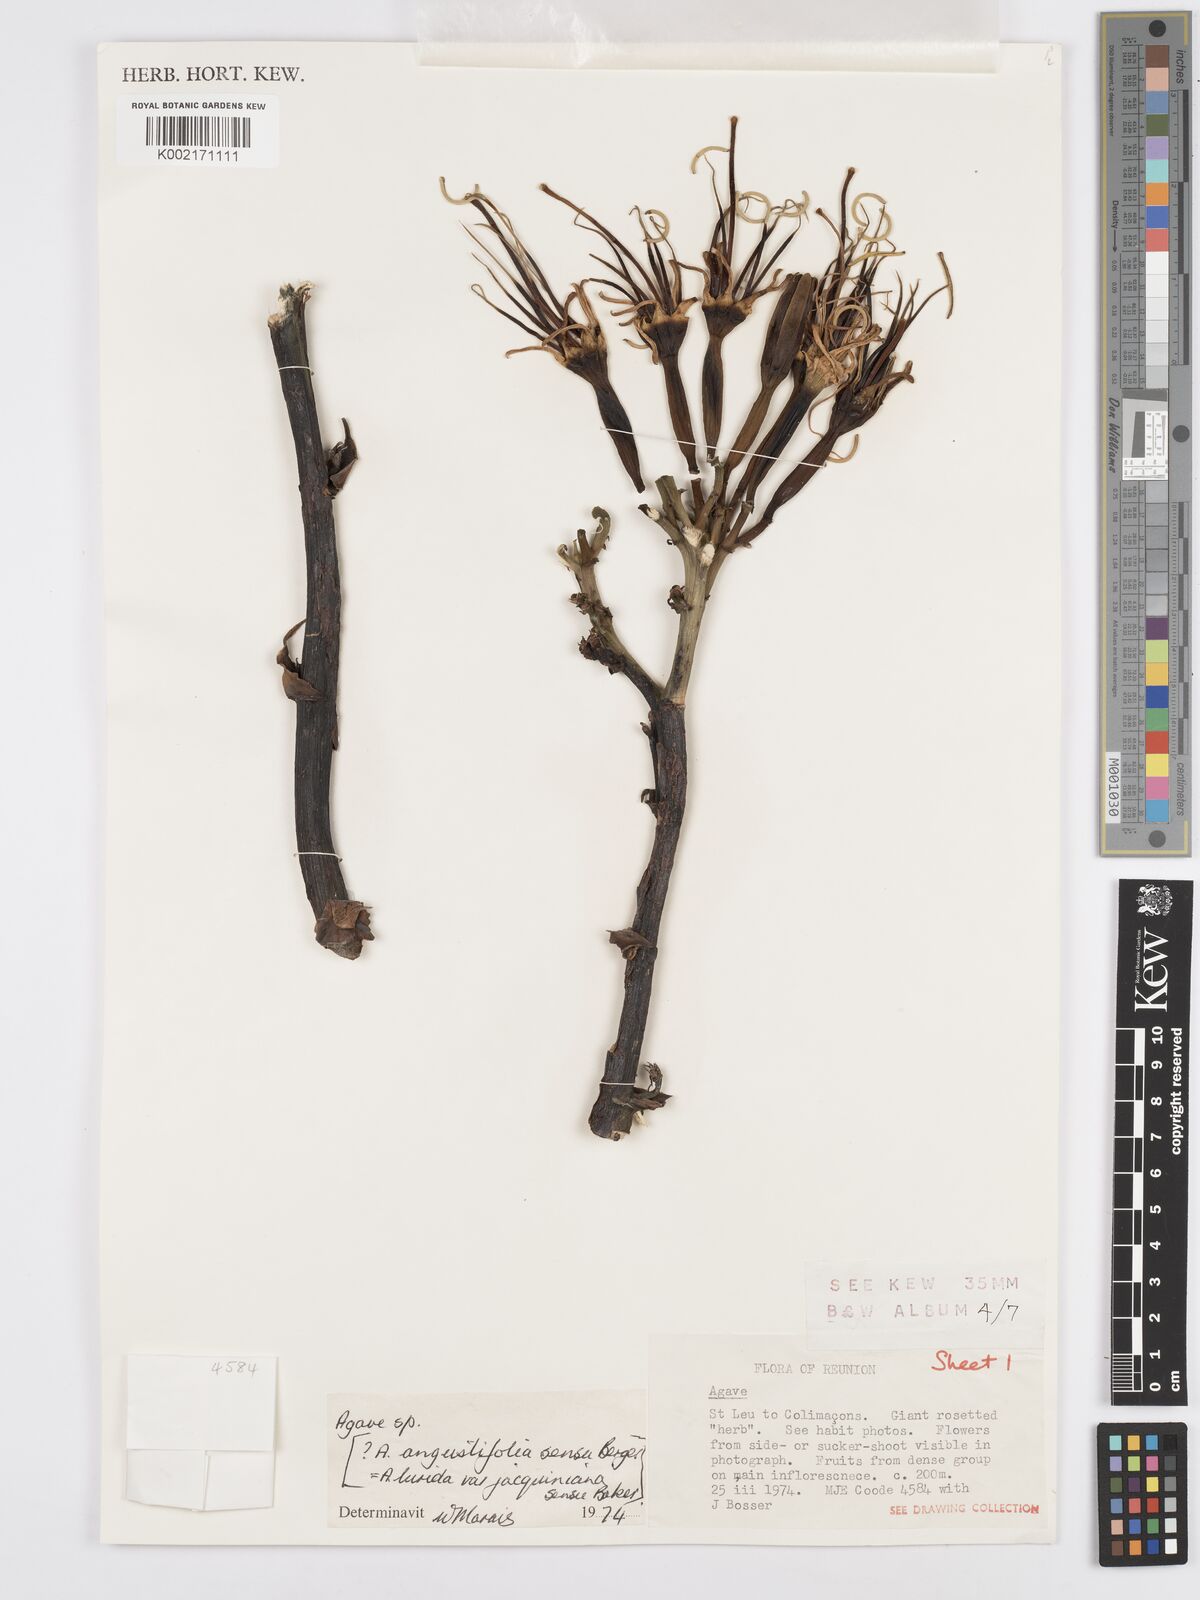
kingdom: Plantae
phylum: Tracheophyta
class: Liliopsida
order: Asparagales
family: Asparagaceae
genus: Agave
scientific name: Agave
